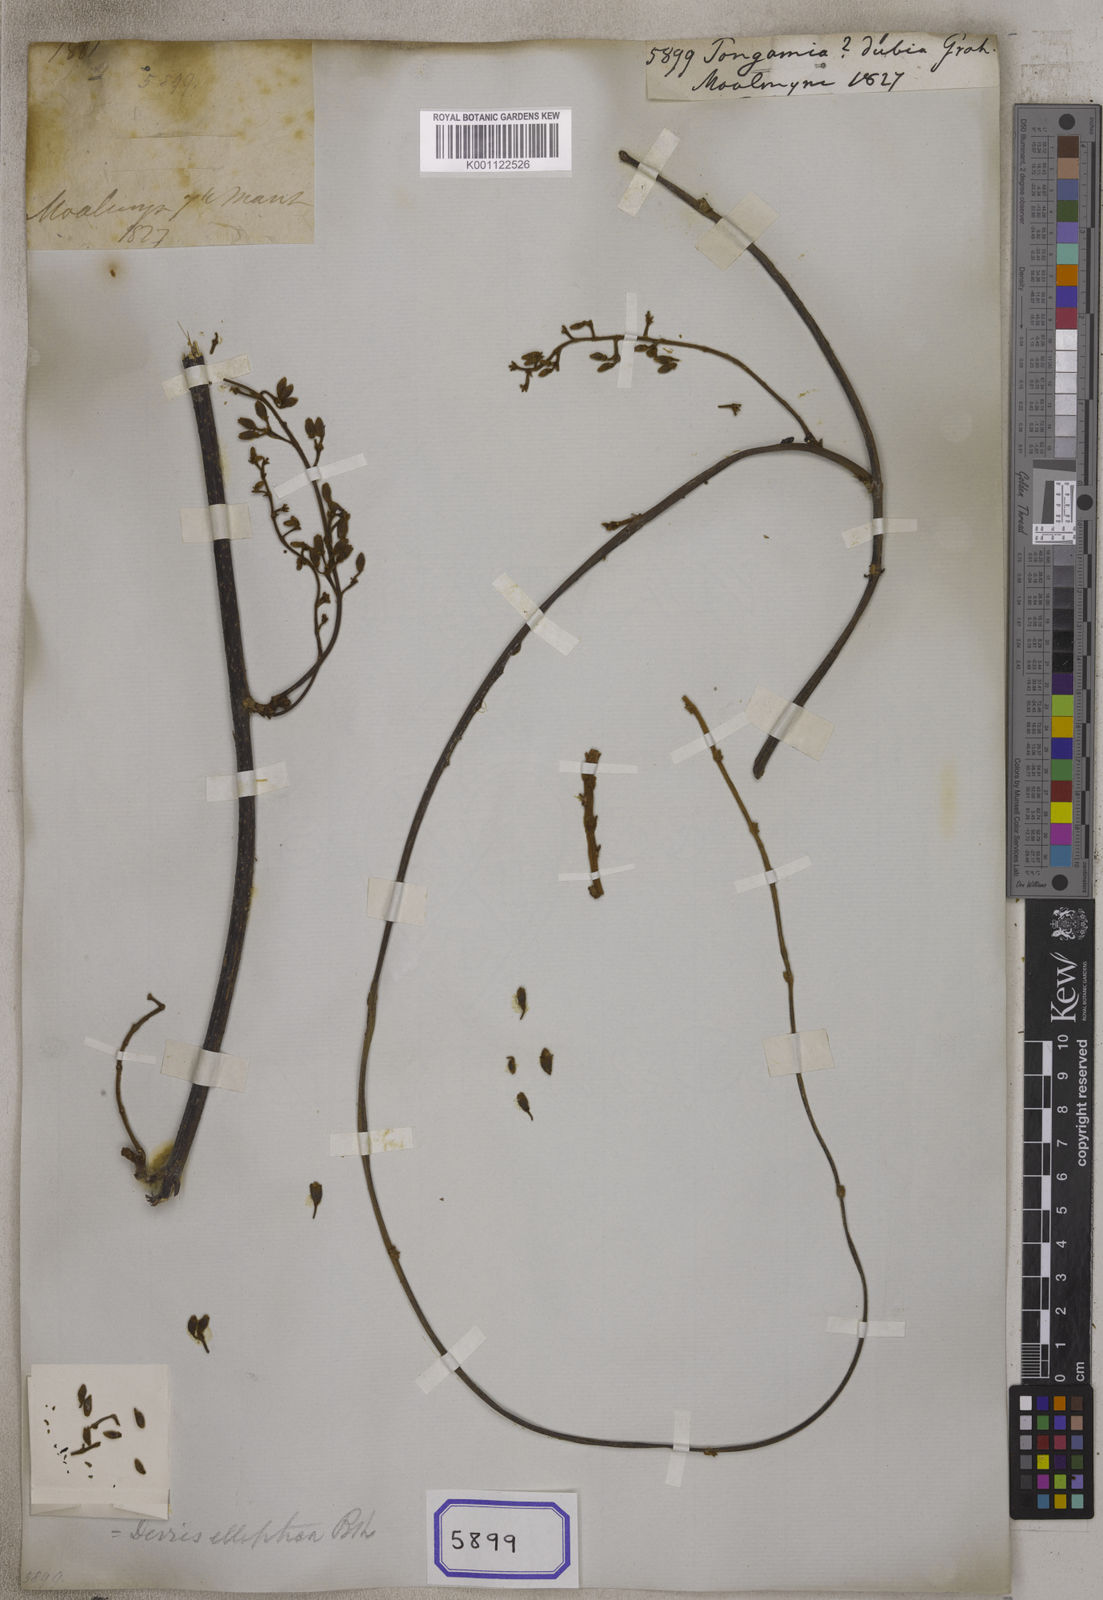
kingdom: Plantae
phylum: Tracheophyta
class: Magnoliopsida
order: Fabales
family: Fabaceae
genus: Derris
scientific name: Derris elliptica
